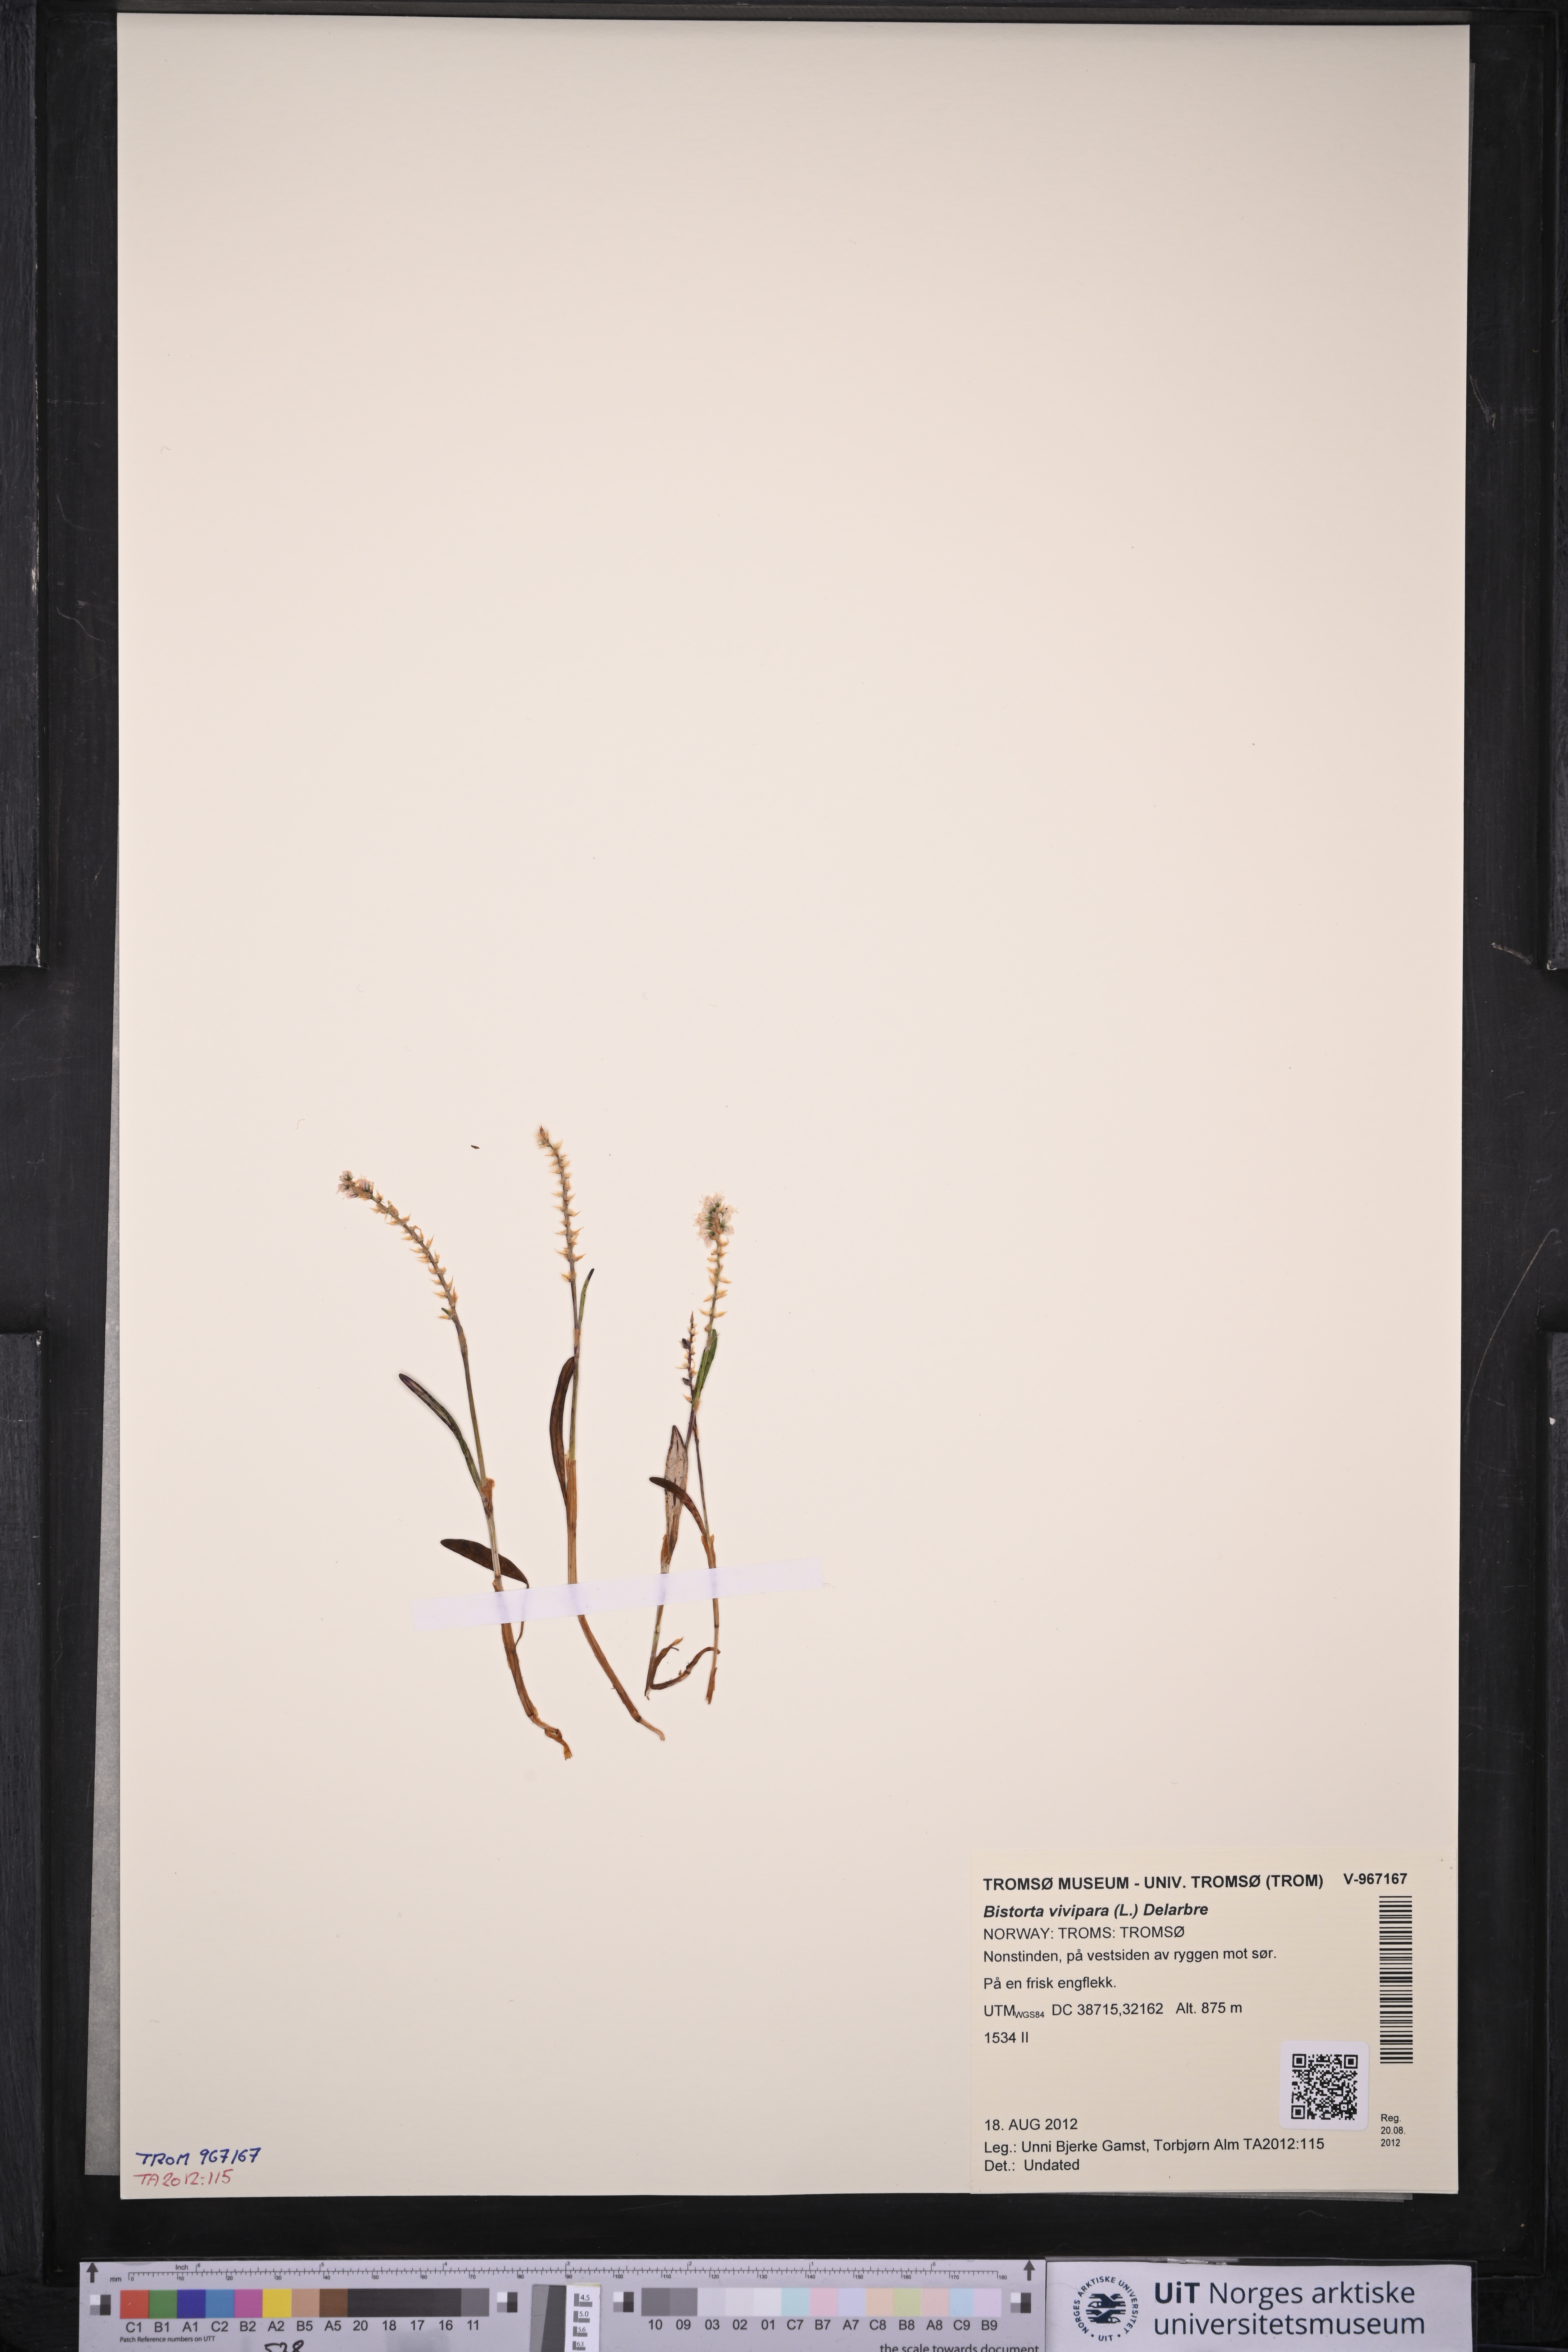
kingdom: Plantae
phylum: Tracheophyta
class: Magnoliopsida
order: Caryophyllales
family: Polygonaceae
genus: Bistorta
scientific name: Bistorta vivipara
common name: Alpine bistort
